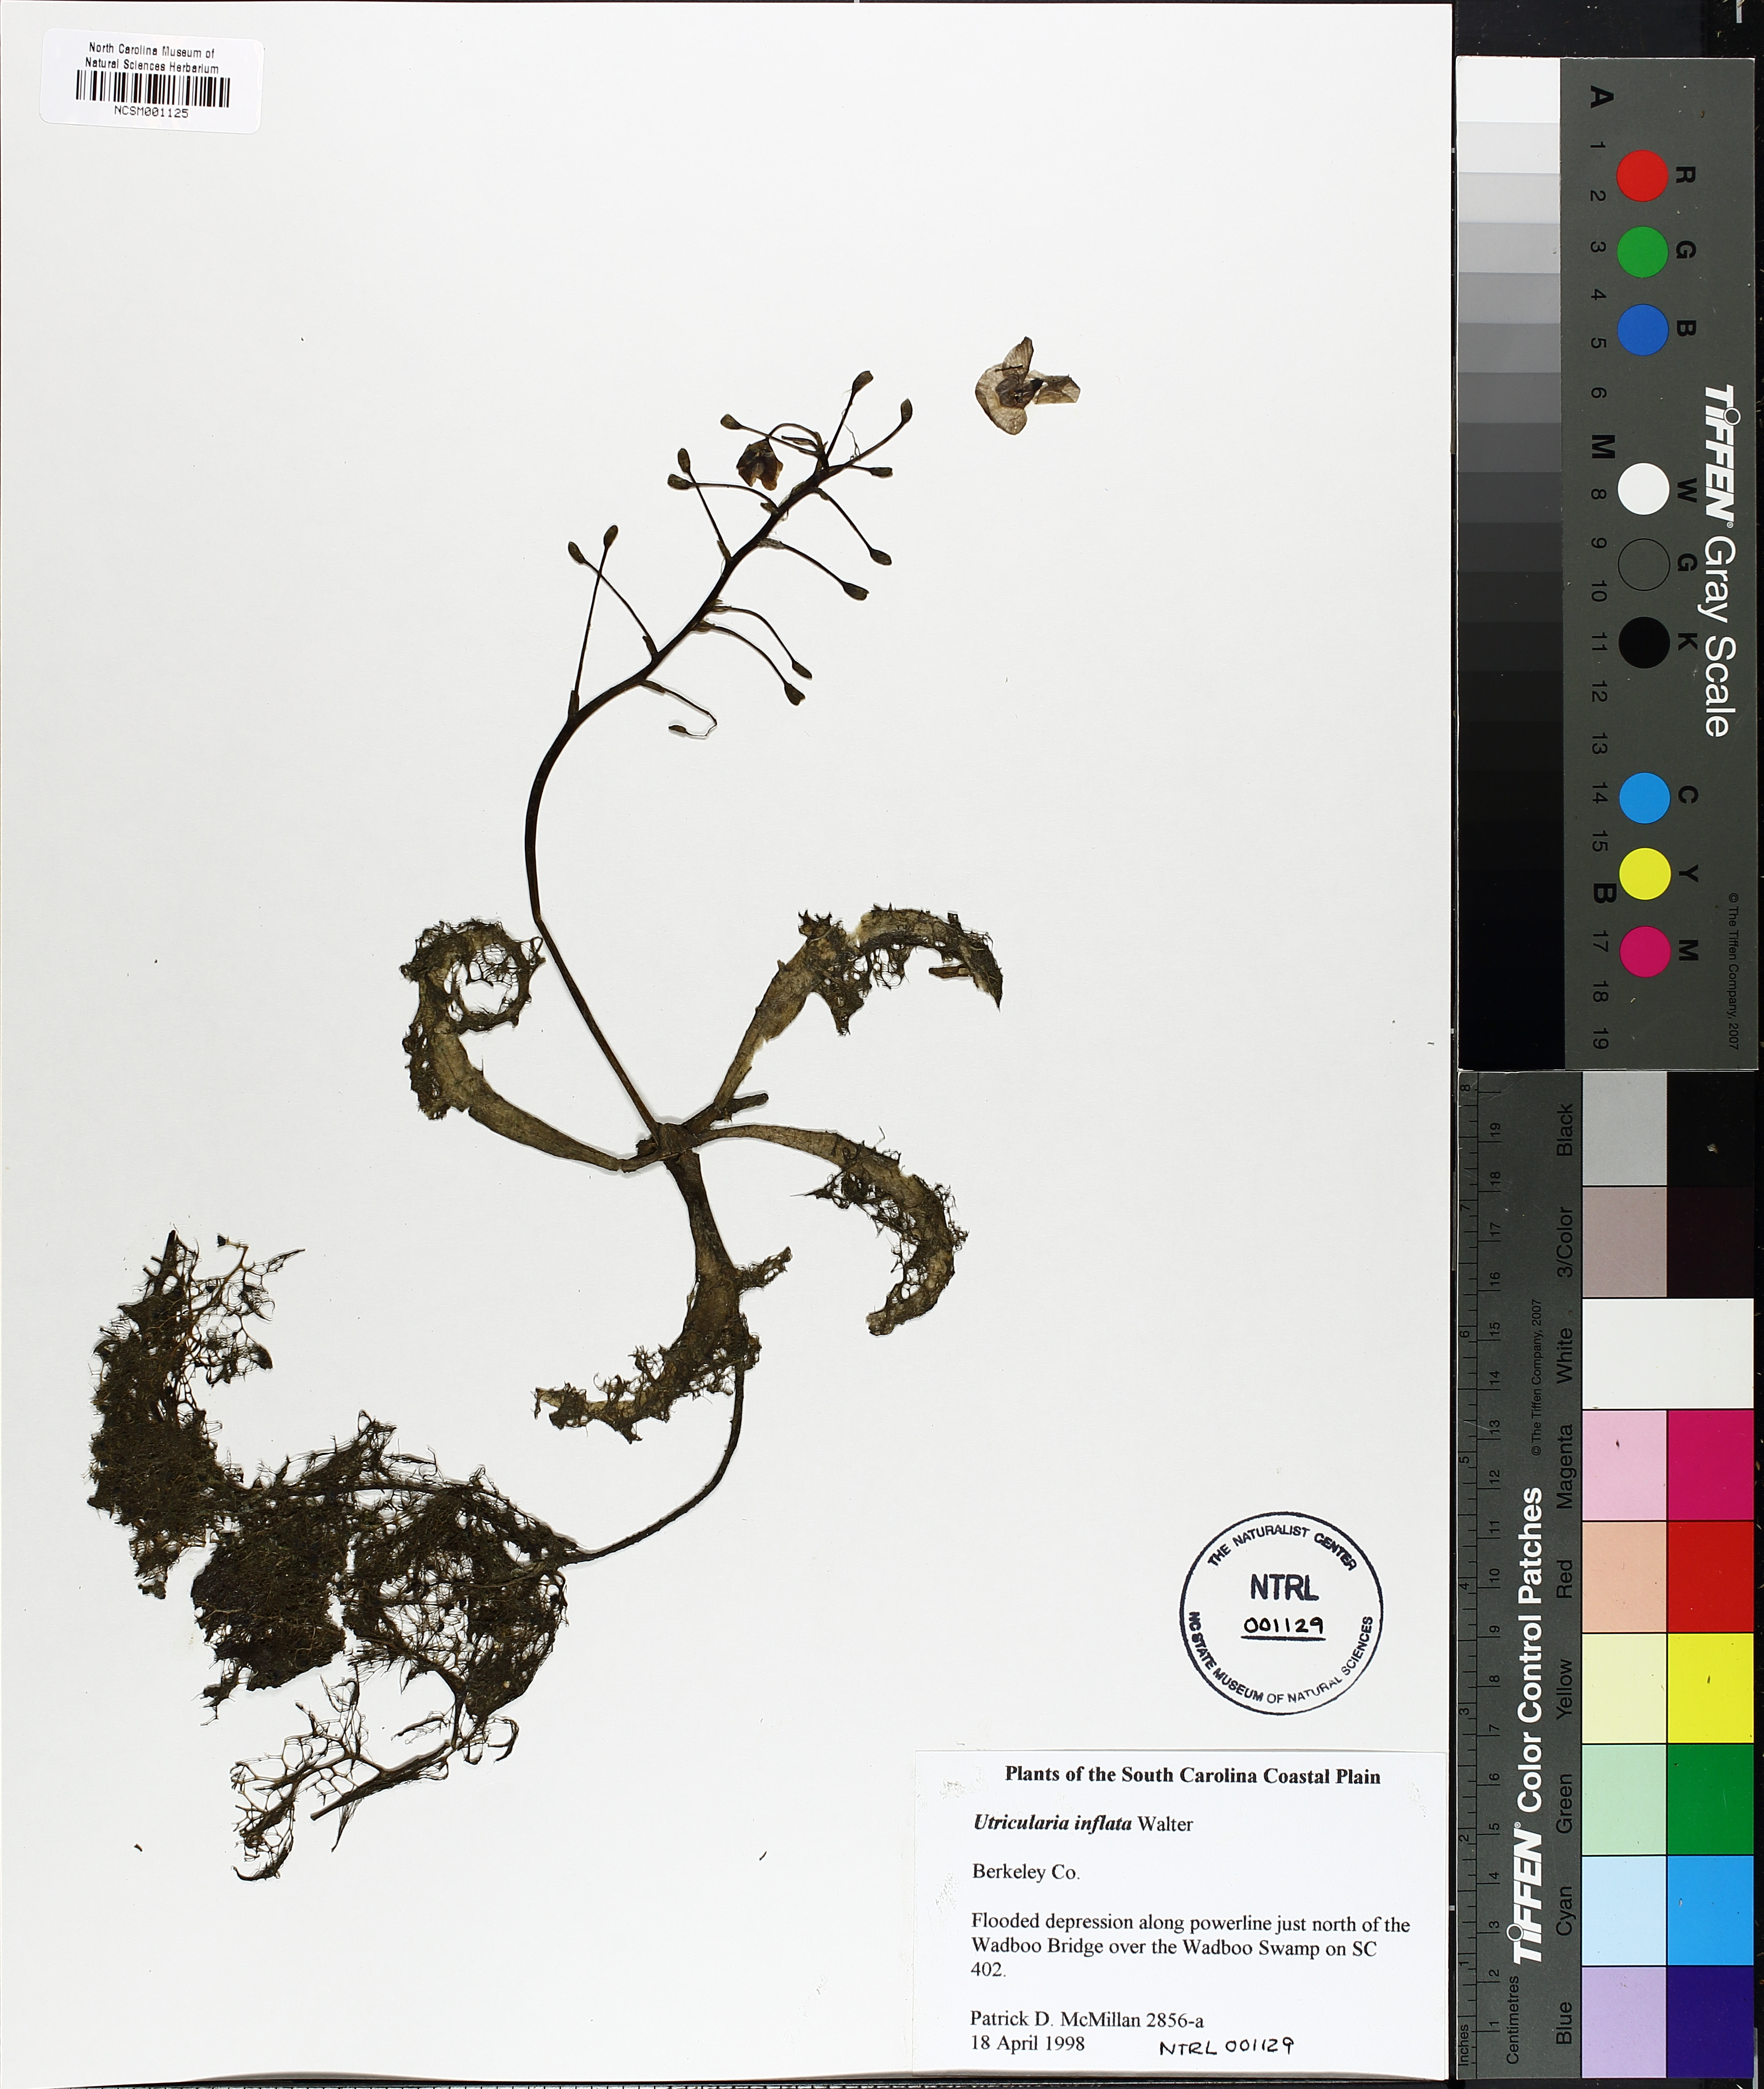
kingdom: Plantae
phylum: Tracheophyta
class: Magnoliopsida
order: Lamiales
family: Lentibulariaceae
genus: Utricularia
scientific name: Utricularia inflata
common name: Floating bladderwort
